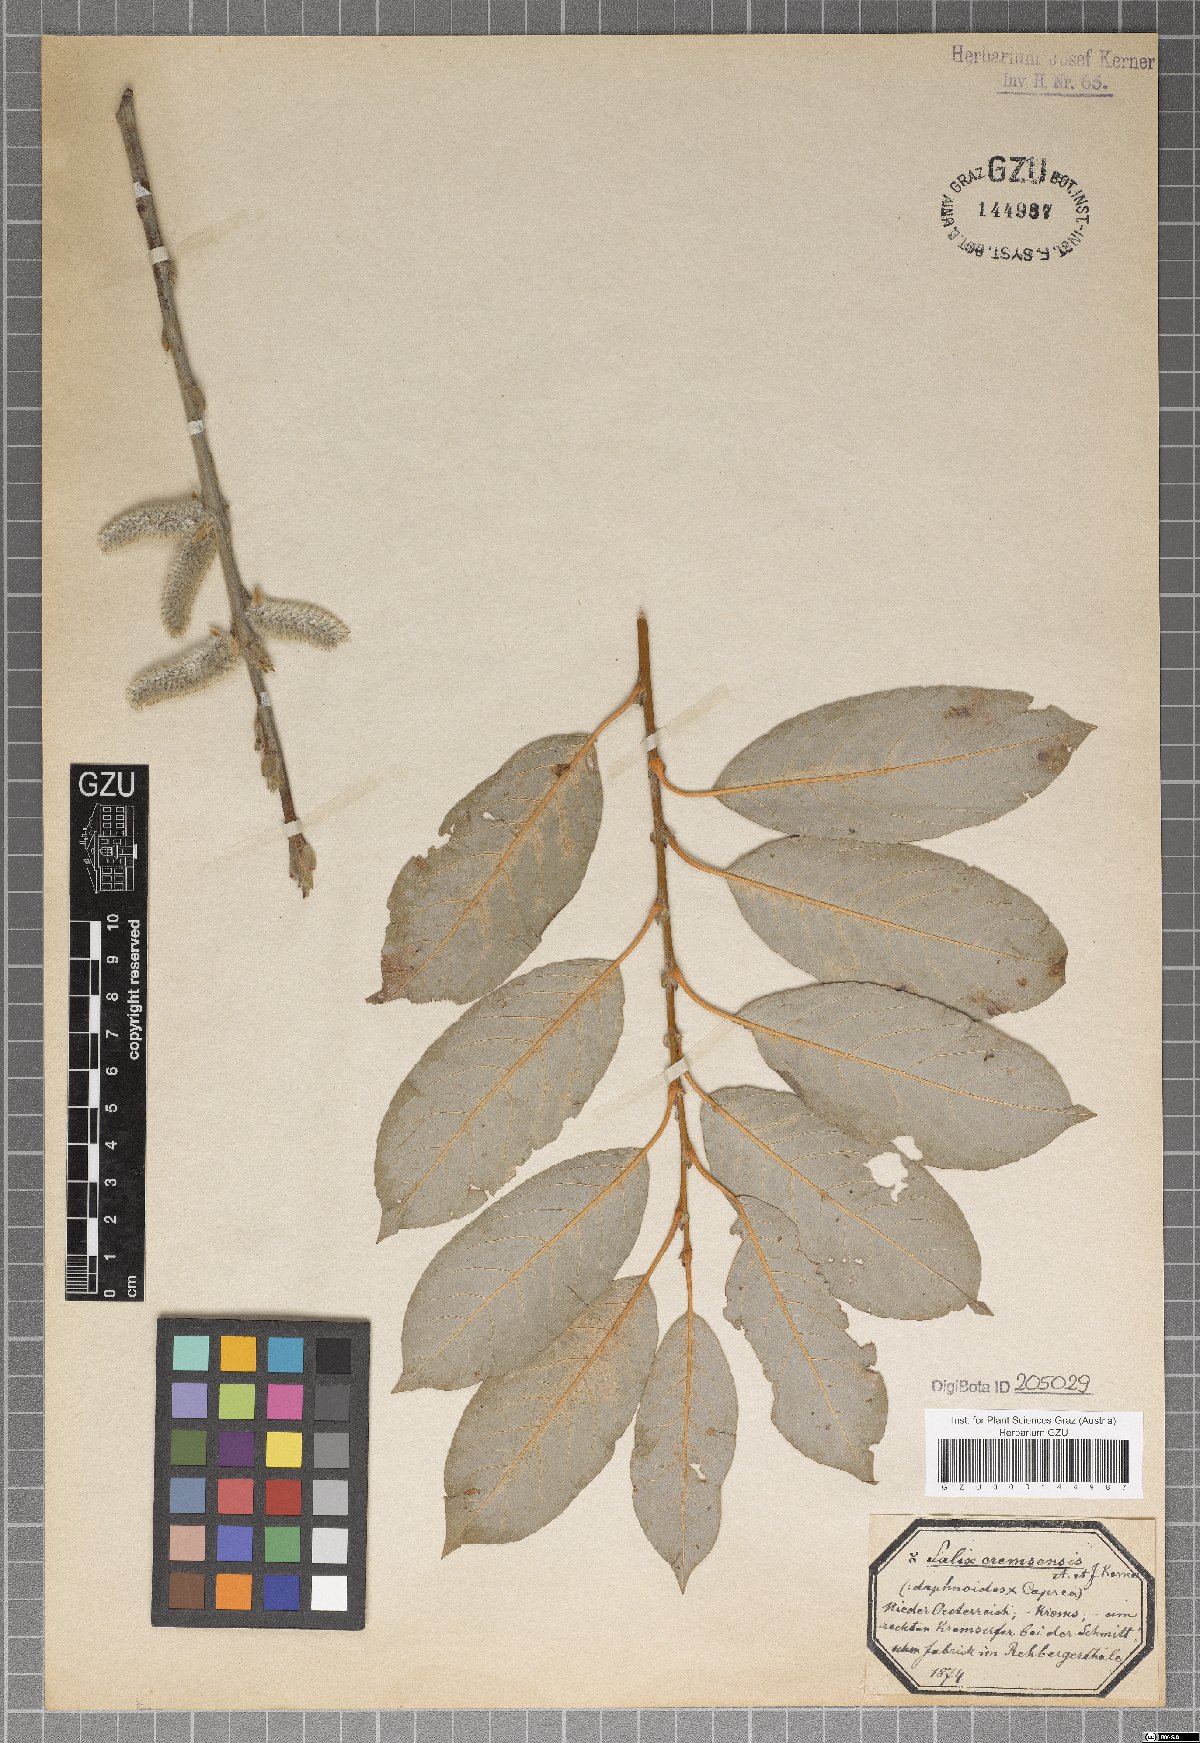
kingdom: Plantae
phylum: Tracheophyta
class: Magnoliopsida
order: Malpighiales
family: Salicaceae
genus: Salix
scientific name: Salix erdingeri
